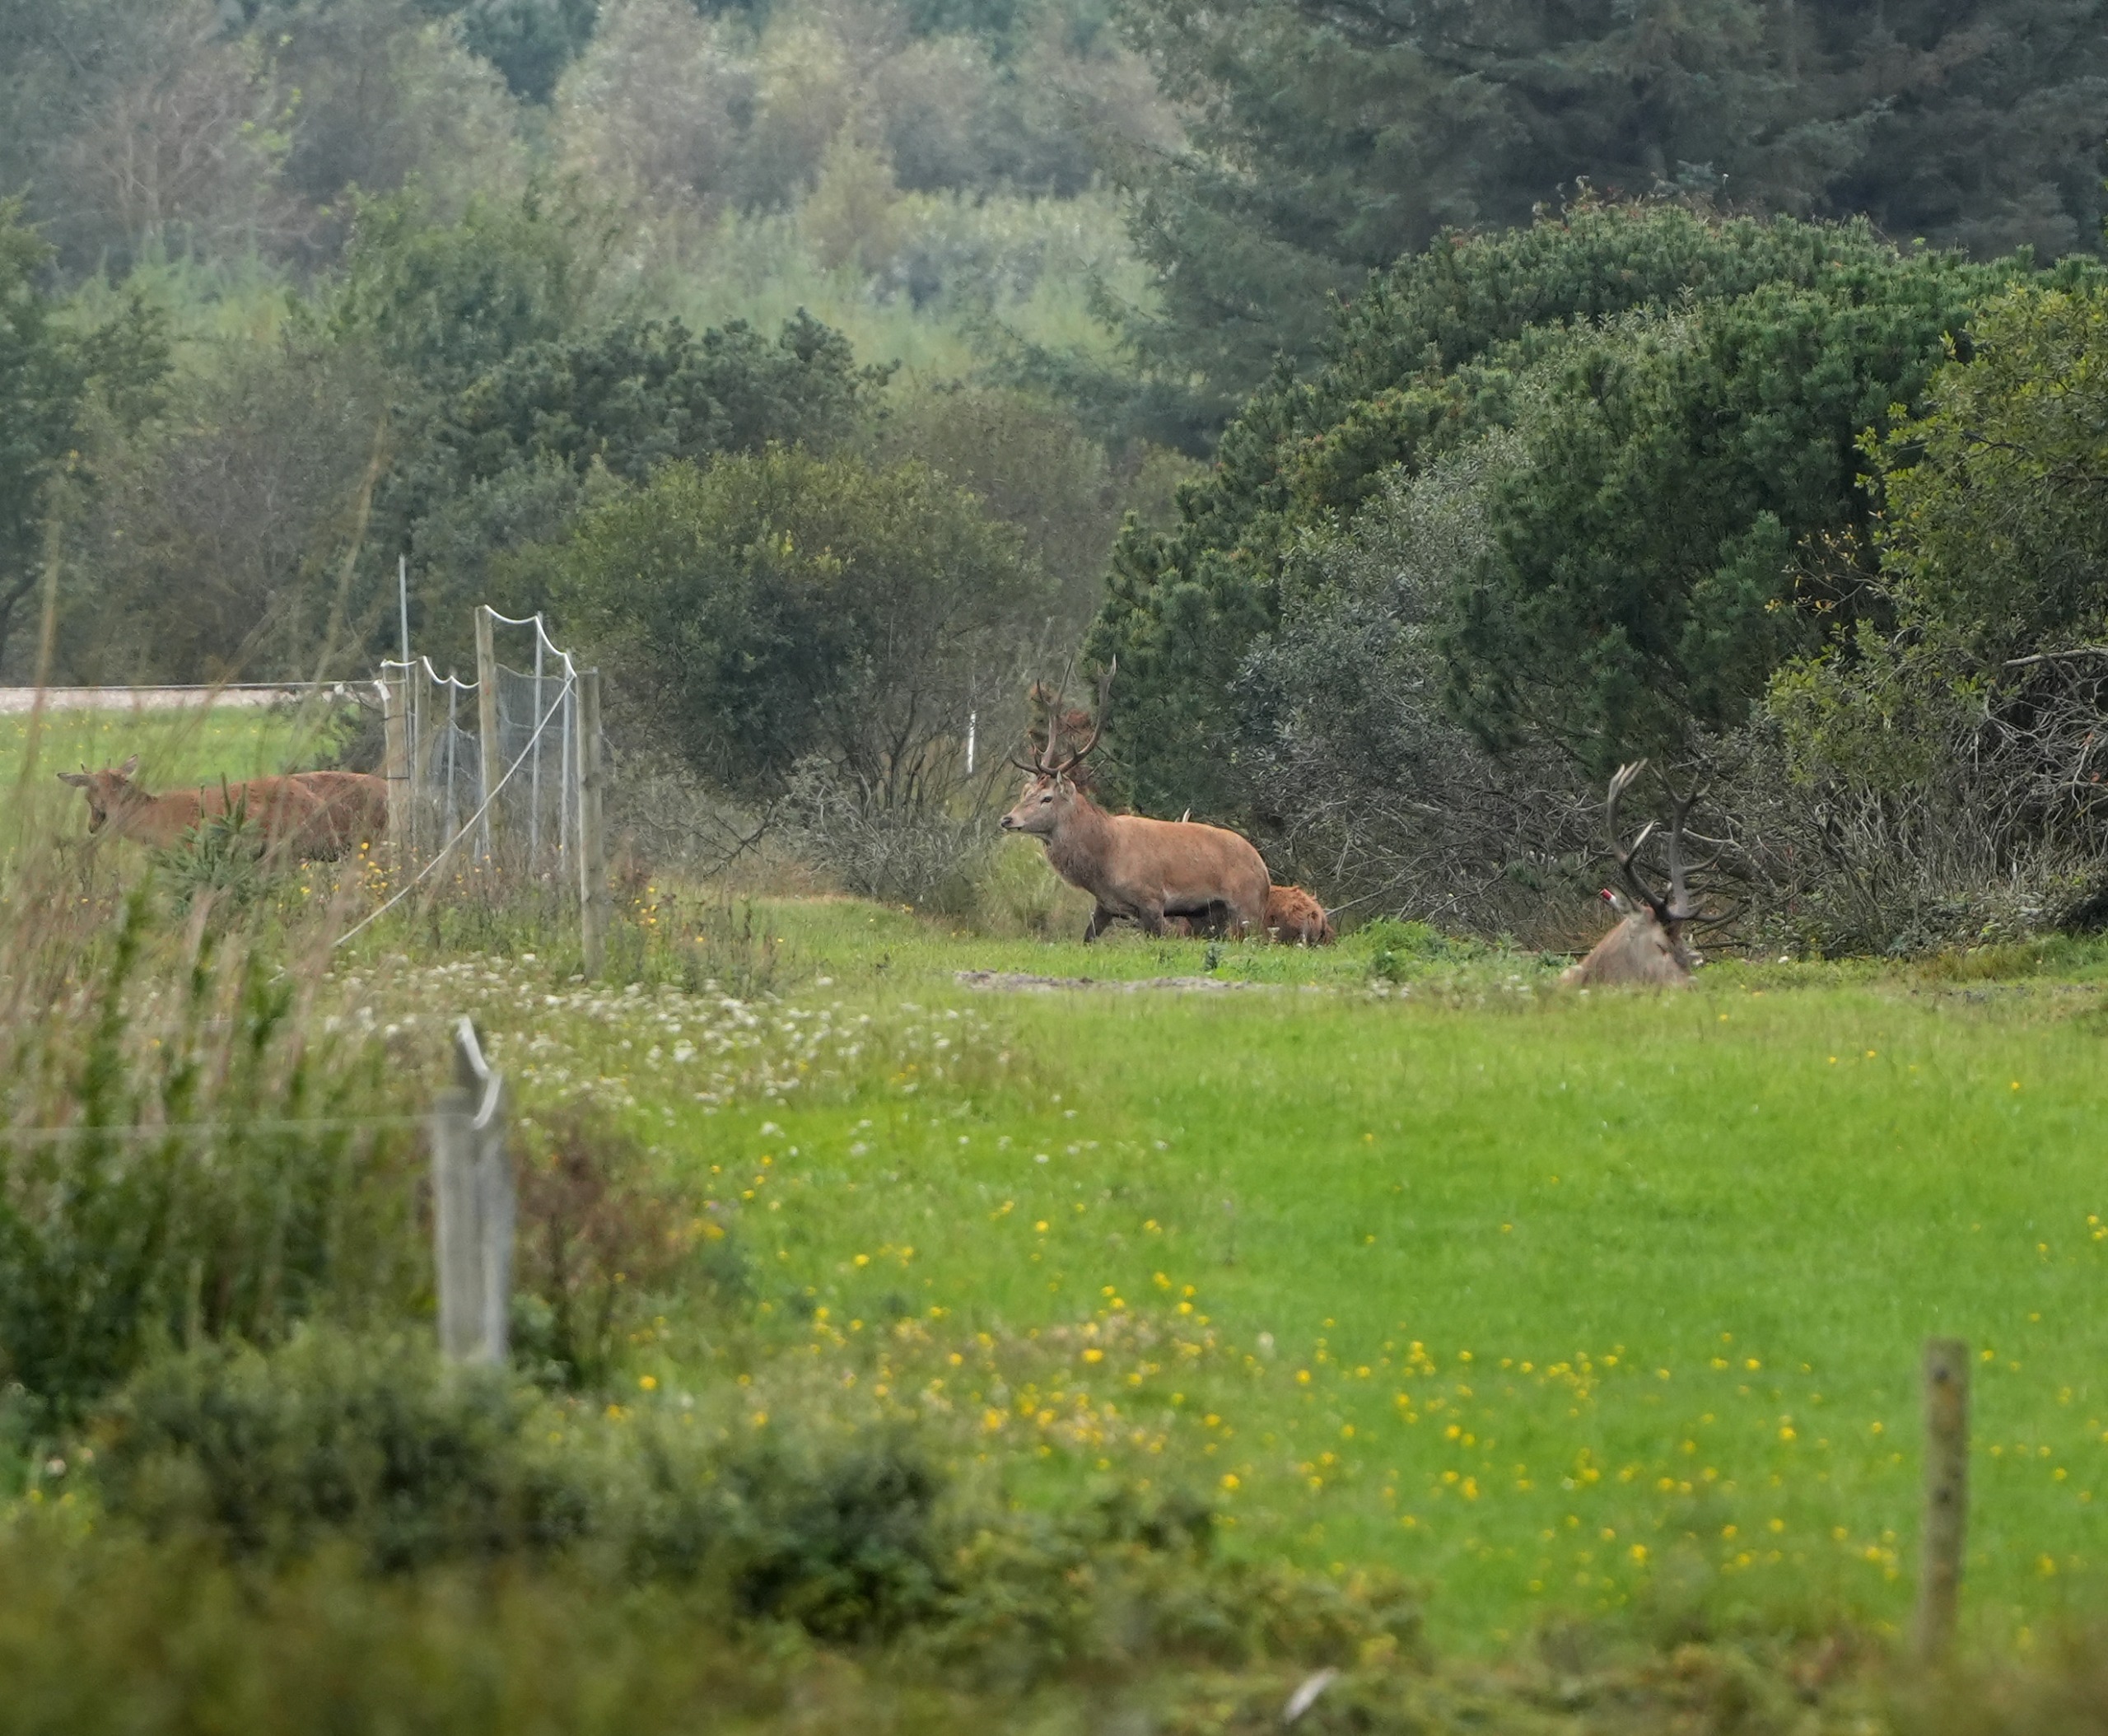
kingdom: Animalia
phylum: Chordata
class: Mammalia
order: Artiodactyla
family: Cervidae
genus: Cervus
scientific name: Cervus elaphus
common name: Krondyr
